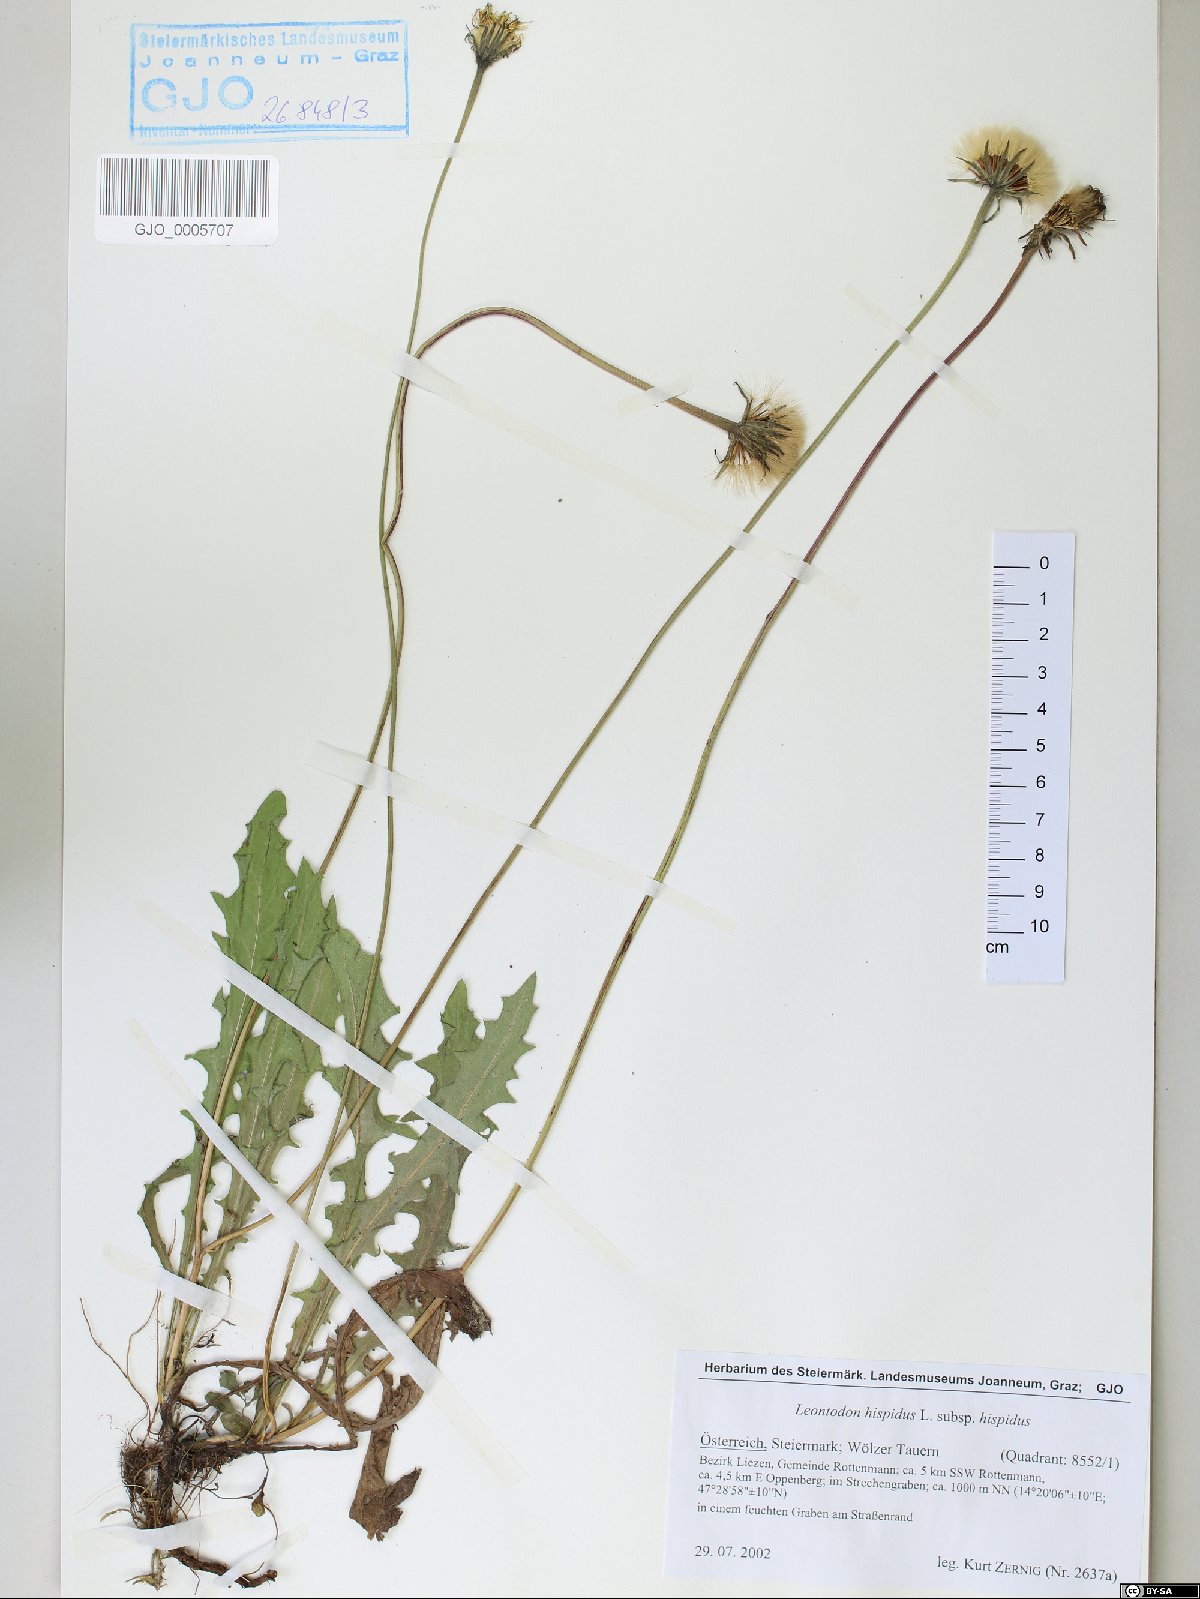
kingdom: Plantae
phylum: Tracheophyta
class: Magnoliopsida
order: Asterales
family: Asteraceae
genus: Leontodon
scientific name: Leontodon hispidus
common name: Rough hawkbit
